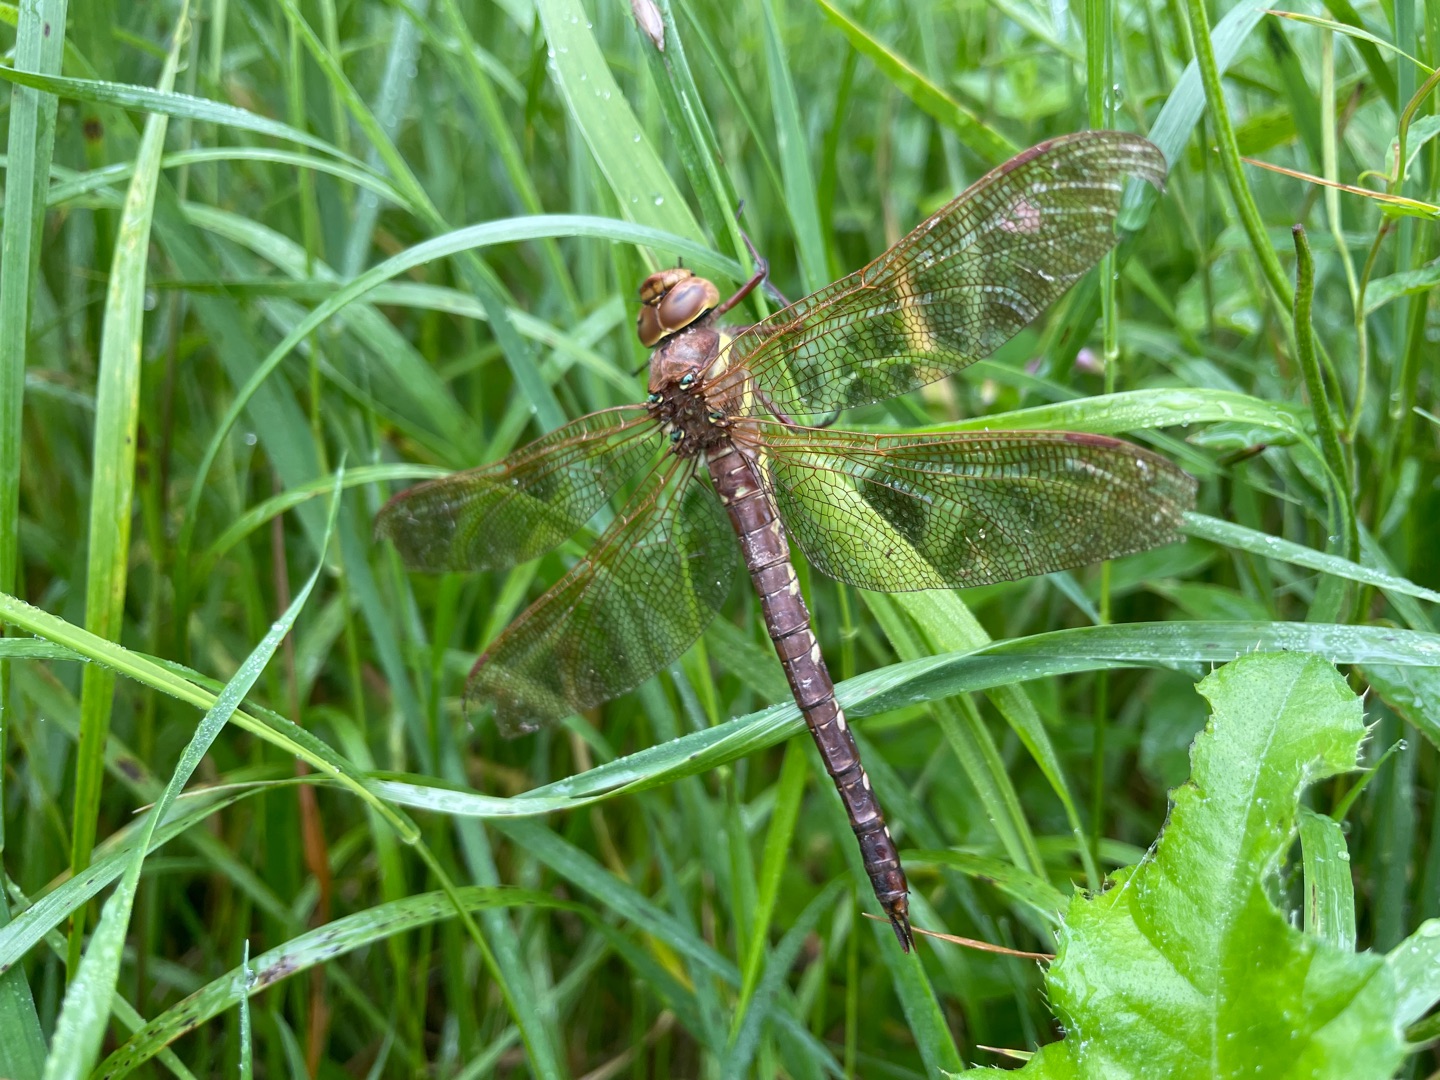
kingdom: Animalia
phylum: Arthropoda
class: Insecta
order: Odonata
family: Aeshnidae
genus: Aeshna
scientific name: Aeshna grandis
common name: Brun mosaikguldsmed
